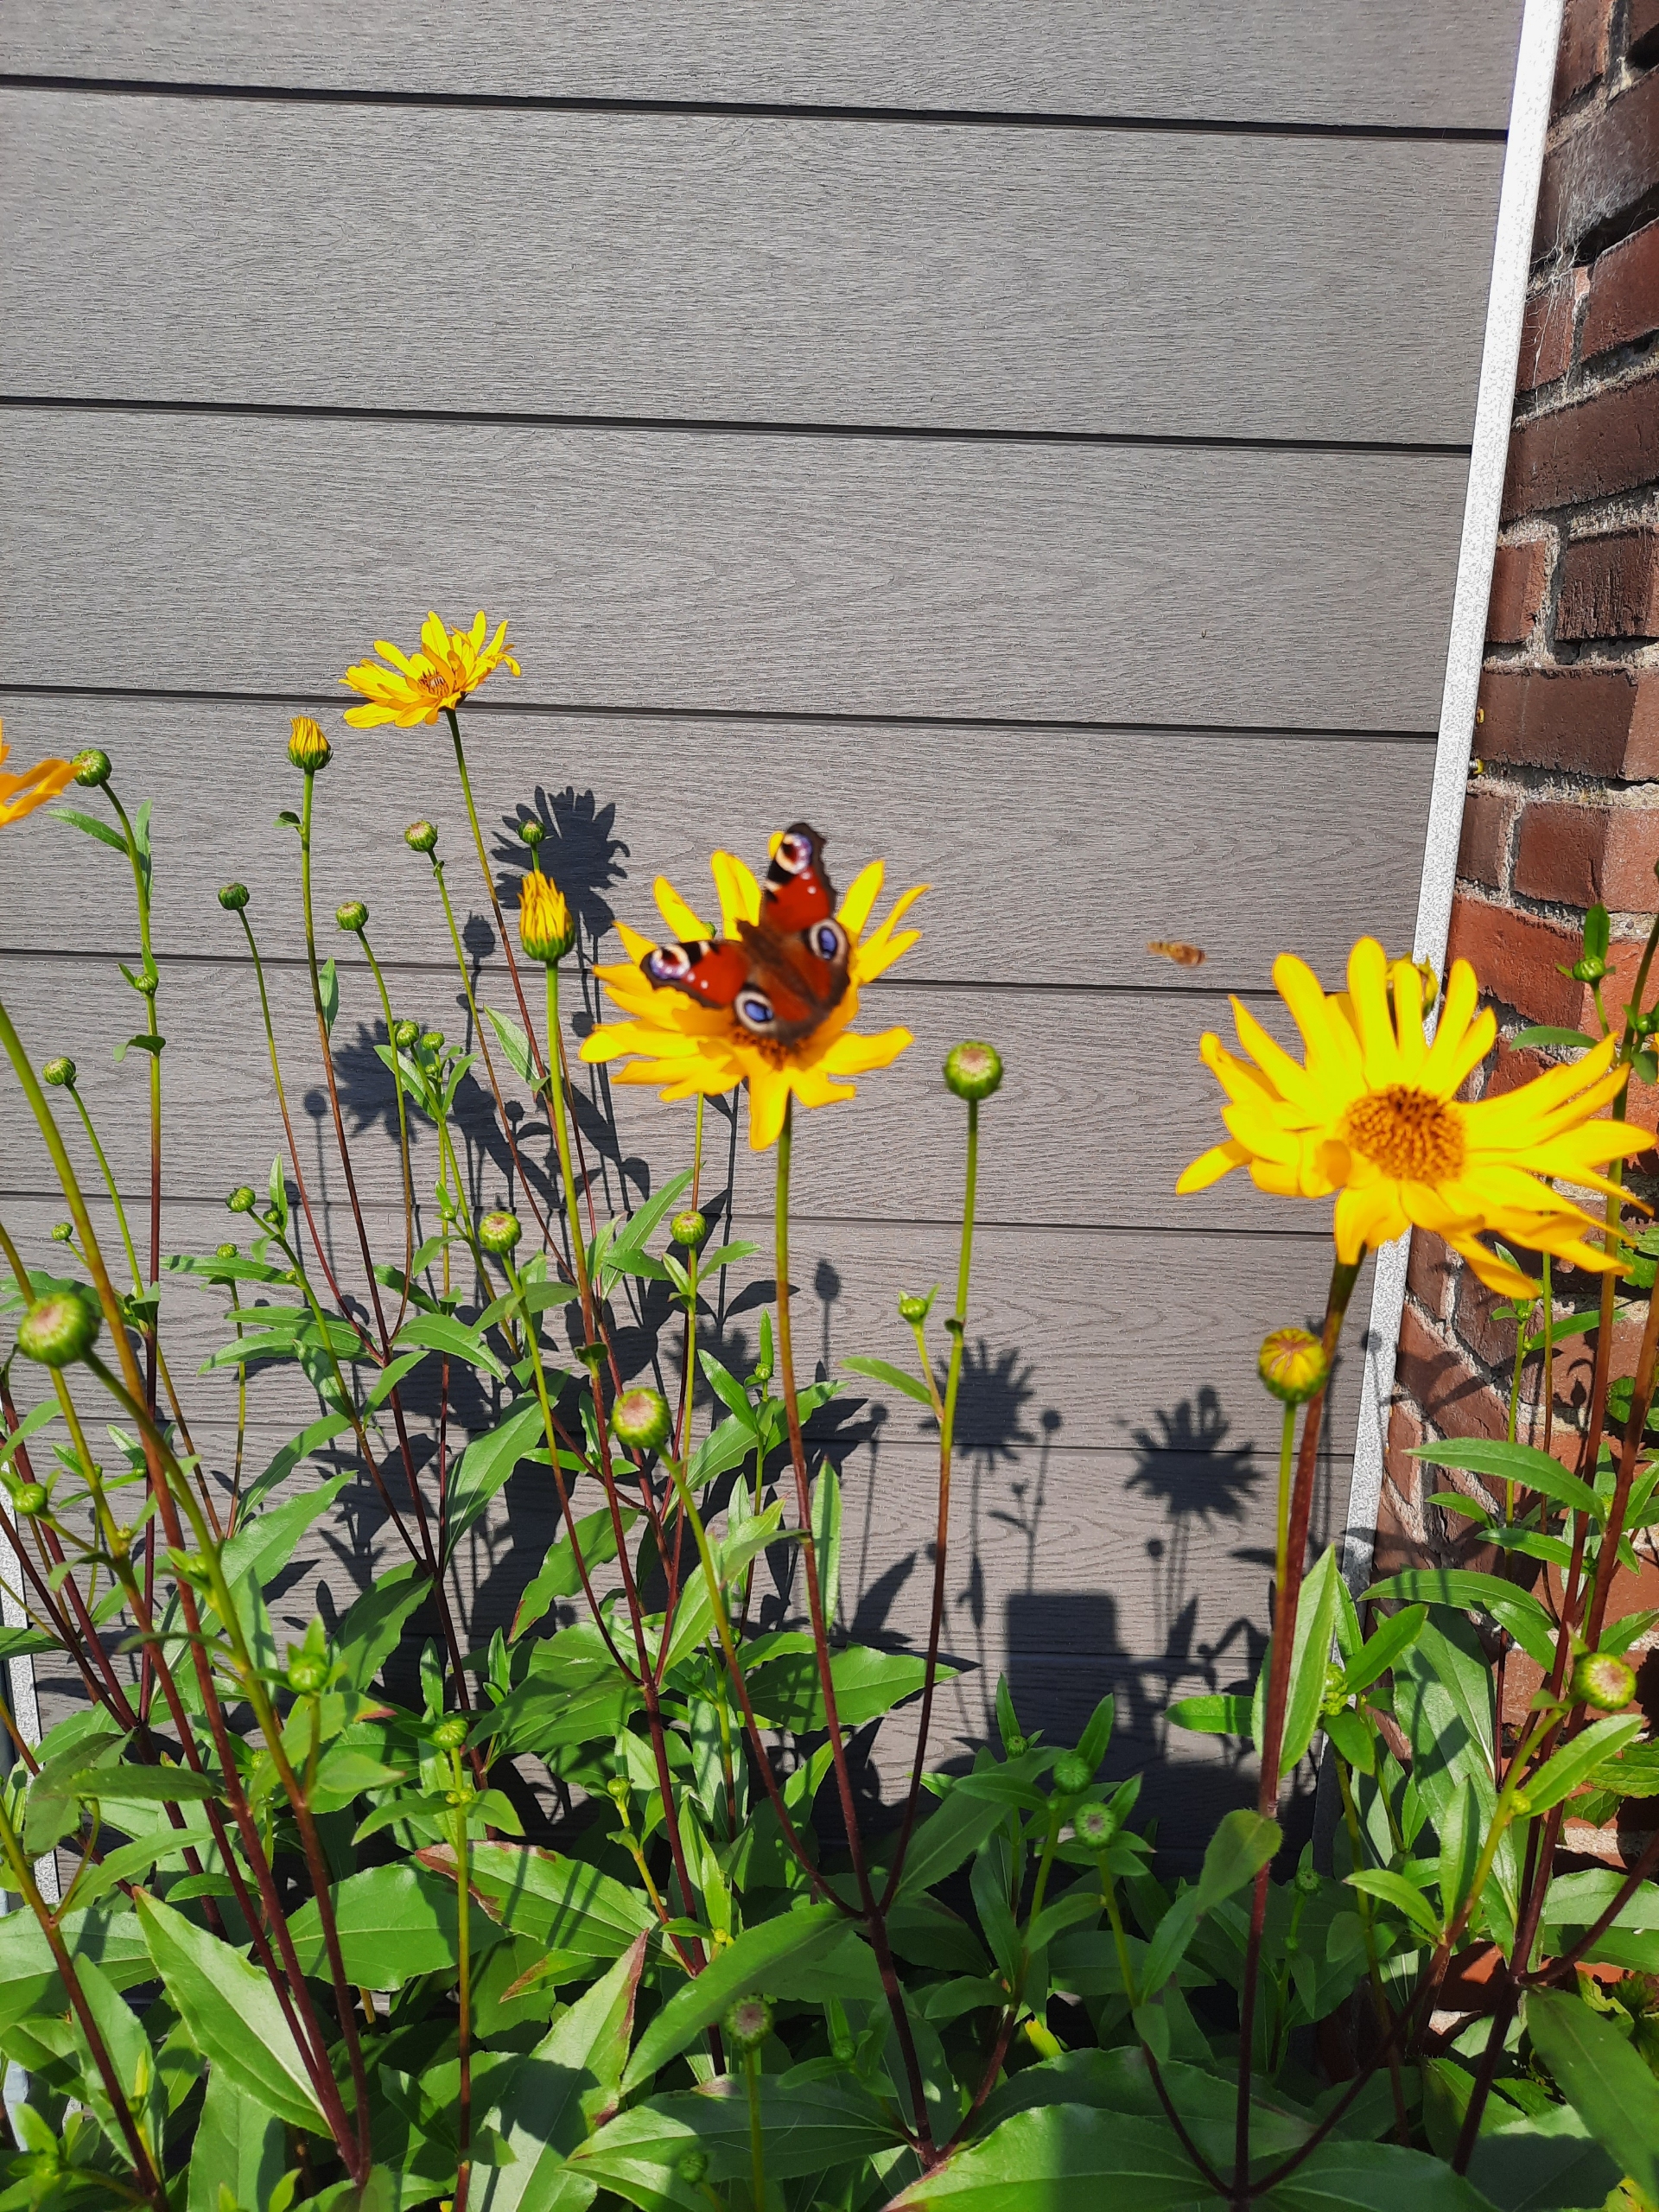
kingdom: Animalia
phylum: Arthropoda
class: Insecta
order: Lepidoptera
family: Nymphalidae
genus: Aglais
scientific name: Aglais io
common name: Dagpåfugleøje
